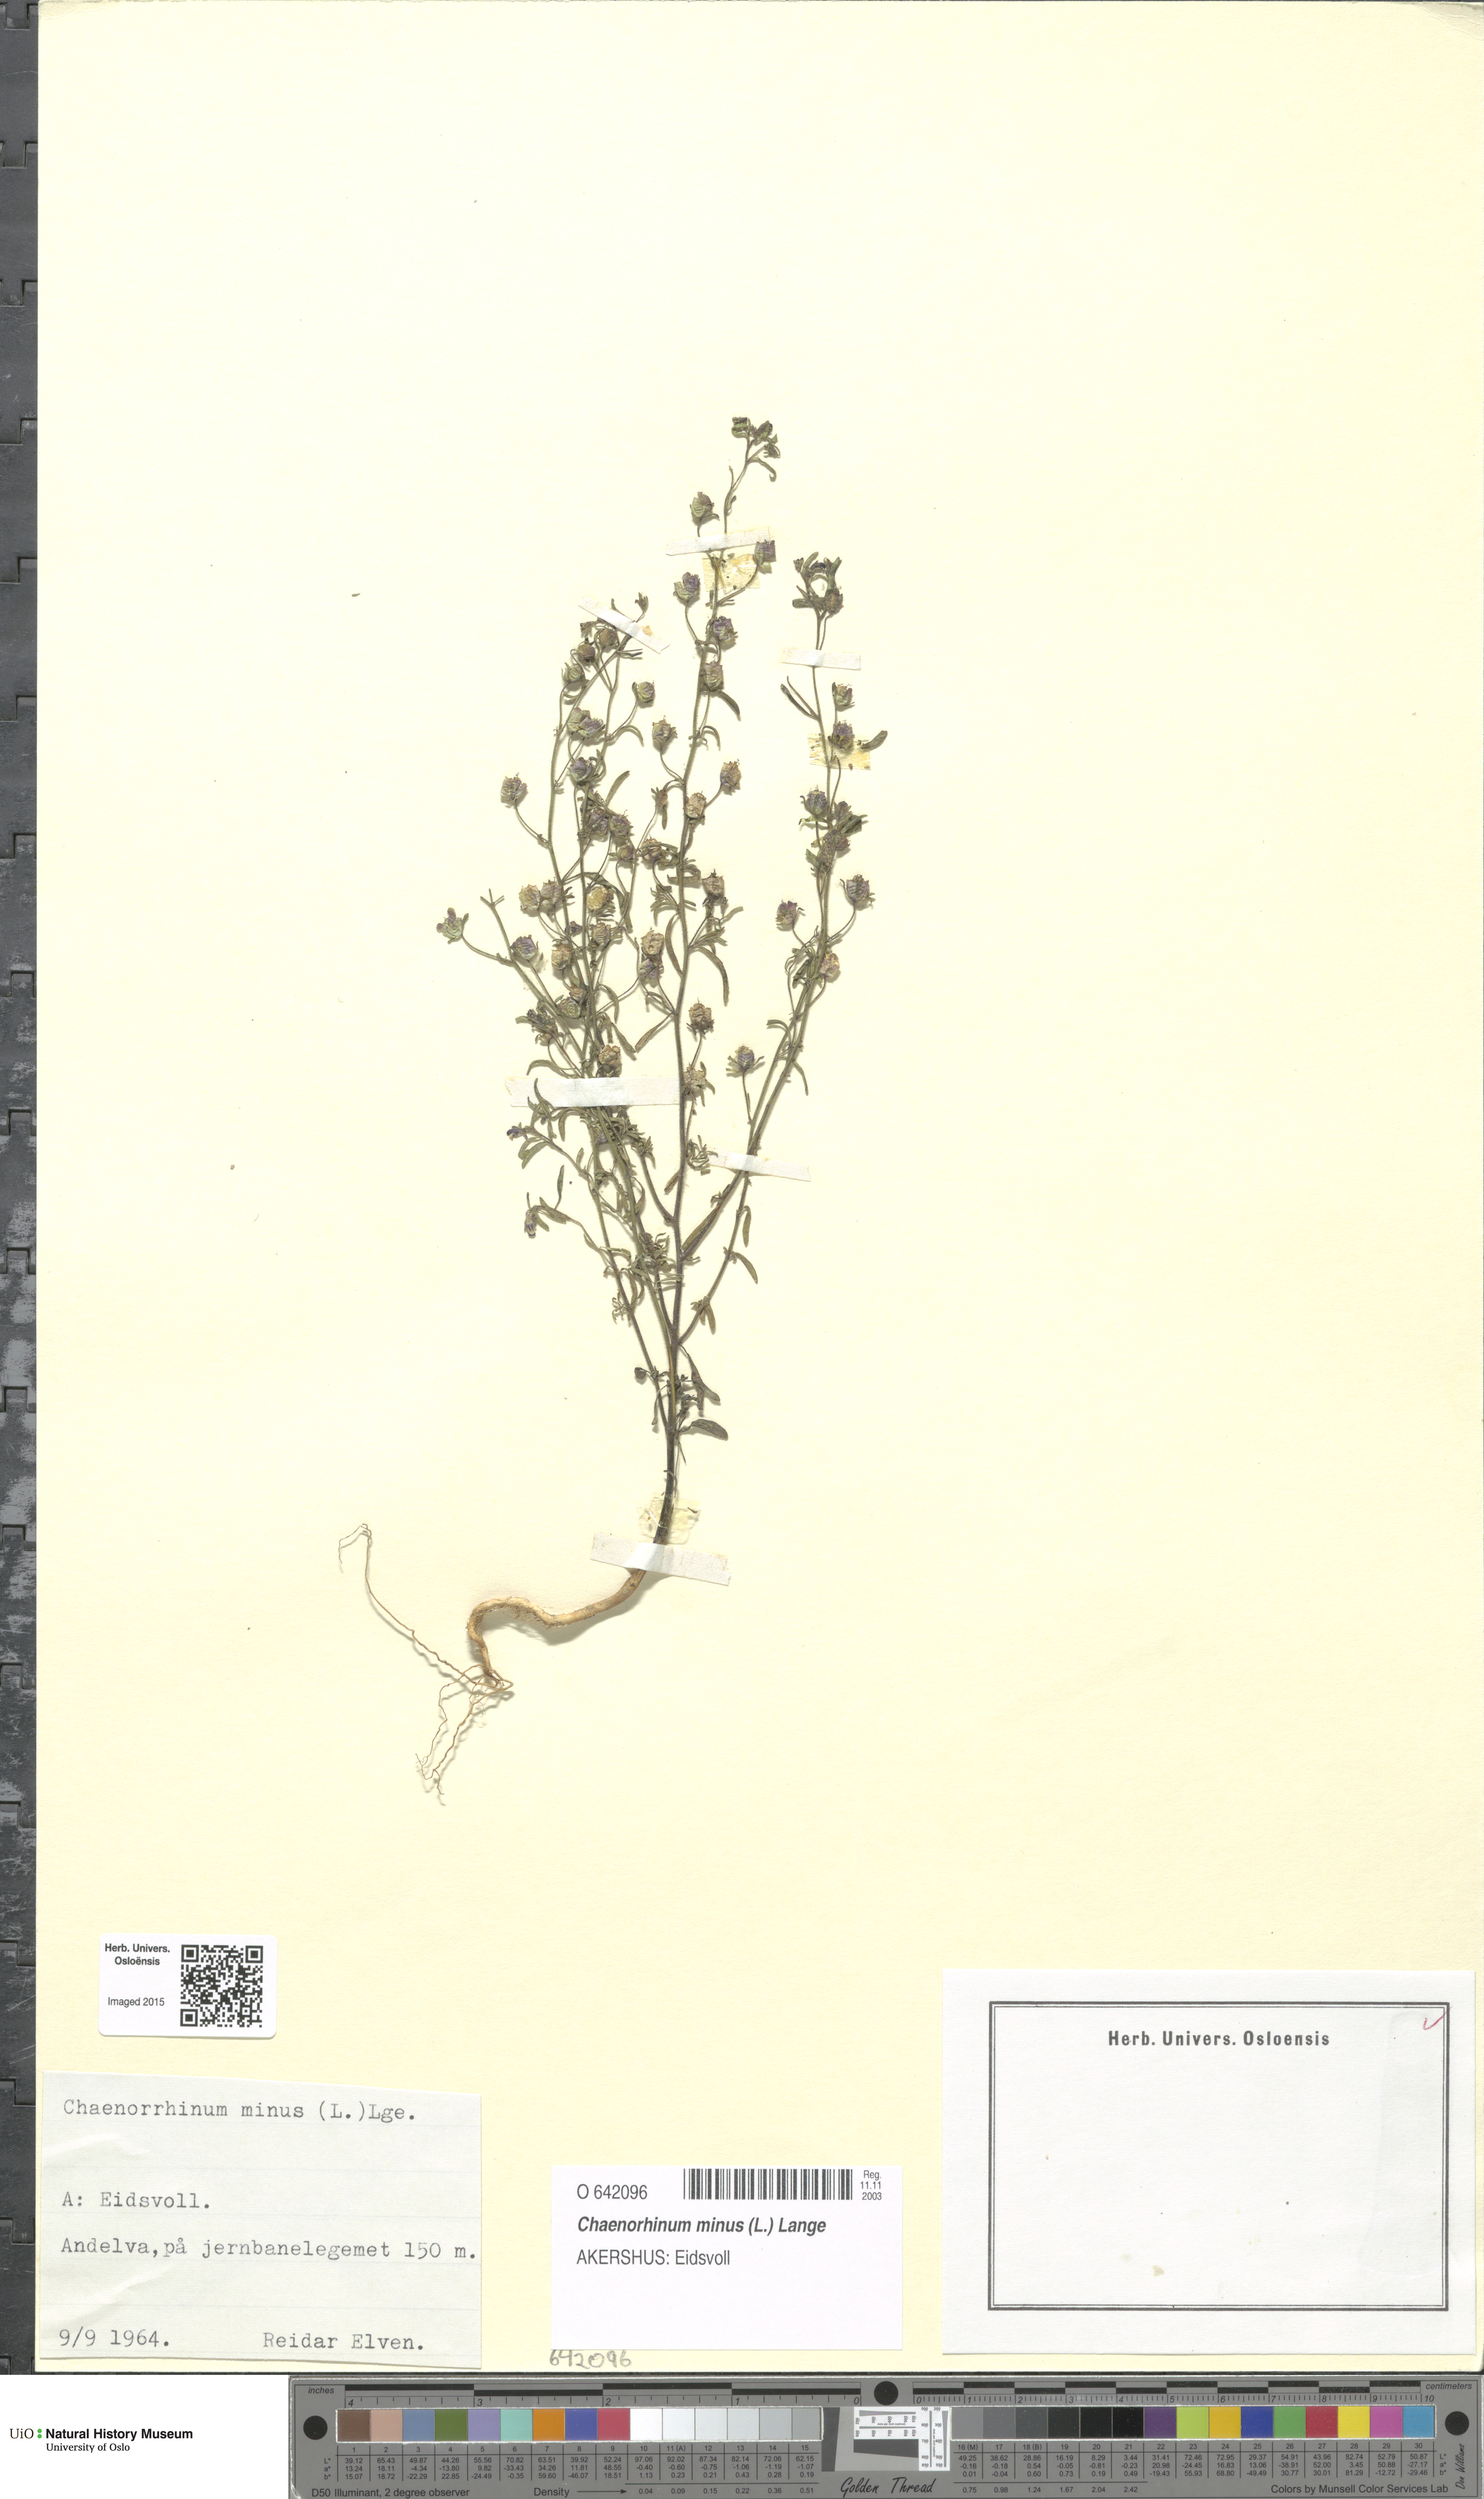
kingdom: Plantae
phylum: Tracheophyta
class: Magnoliopsida
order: Lamiales
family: Plantaginaceae
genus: Chaenorhinum
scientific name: Chaenorhinum minus
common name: Dwarf snapdragon
